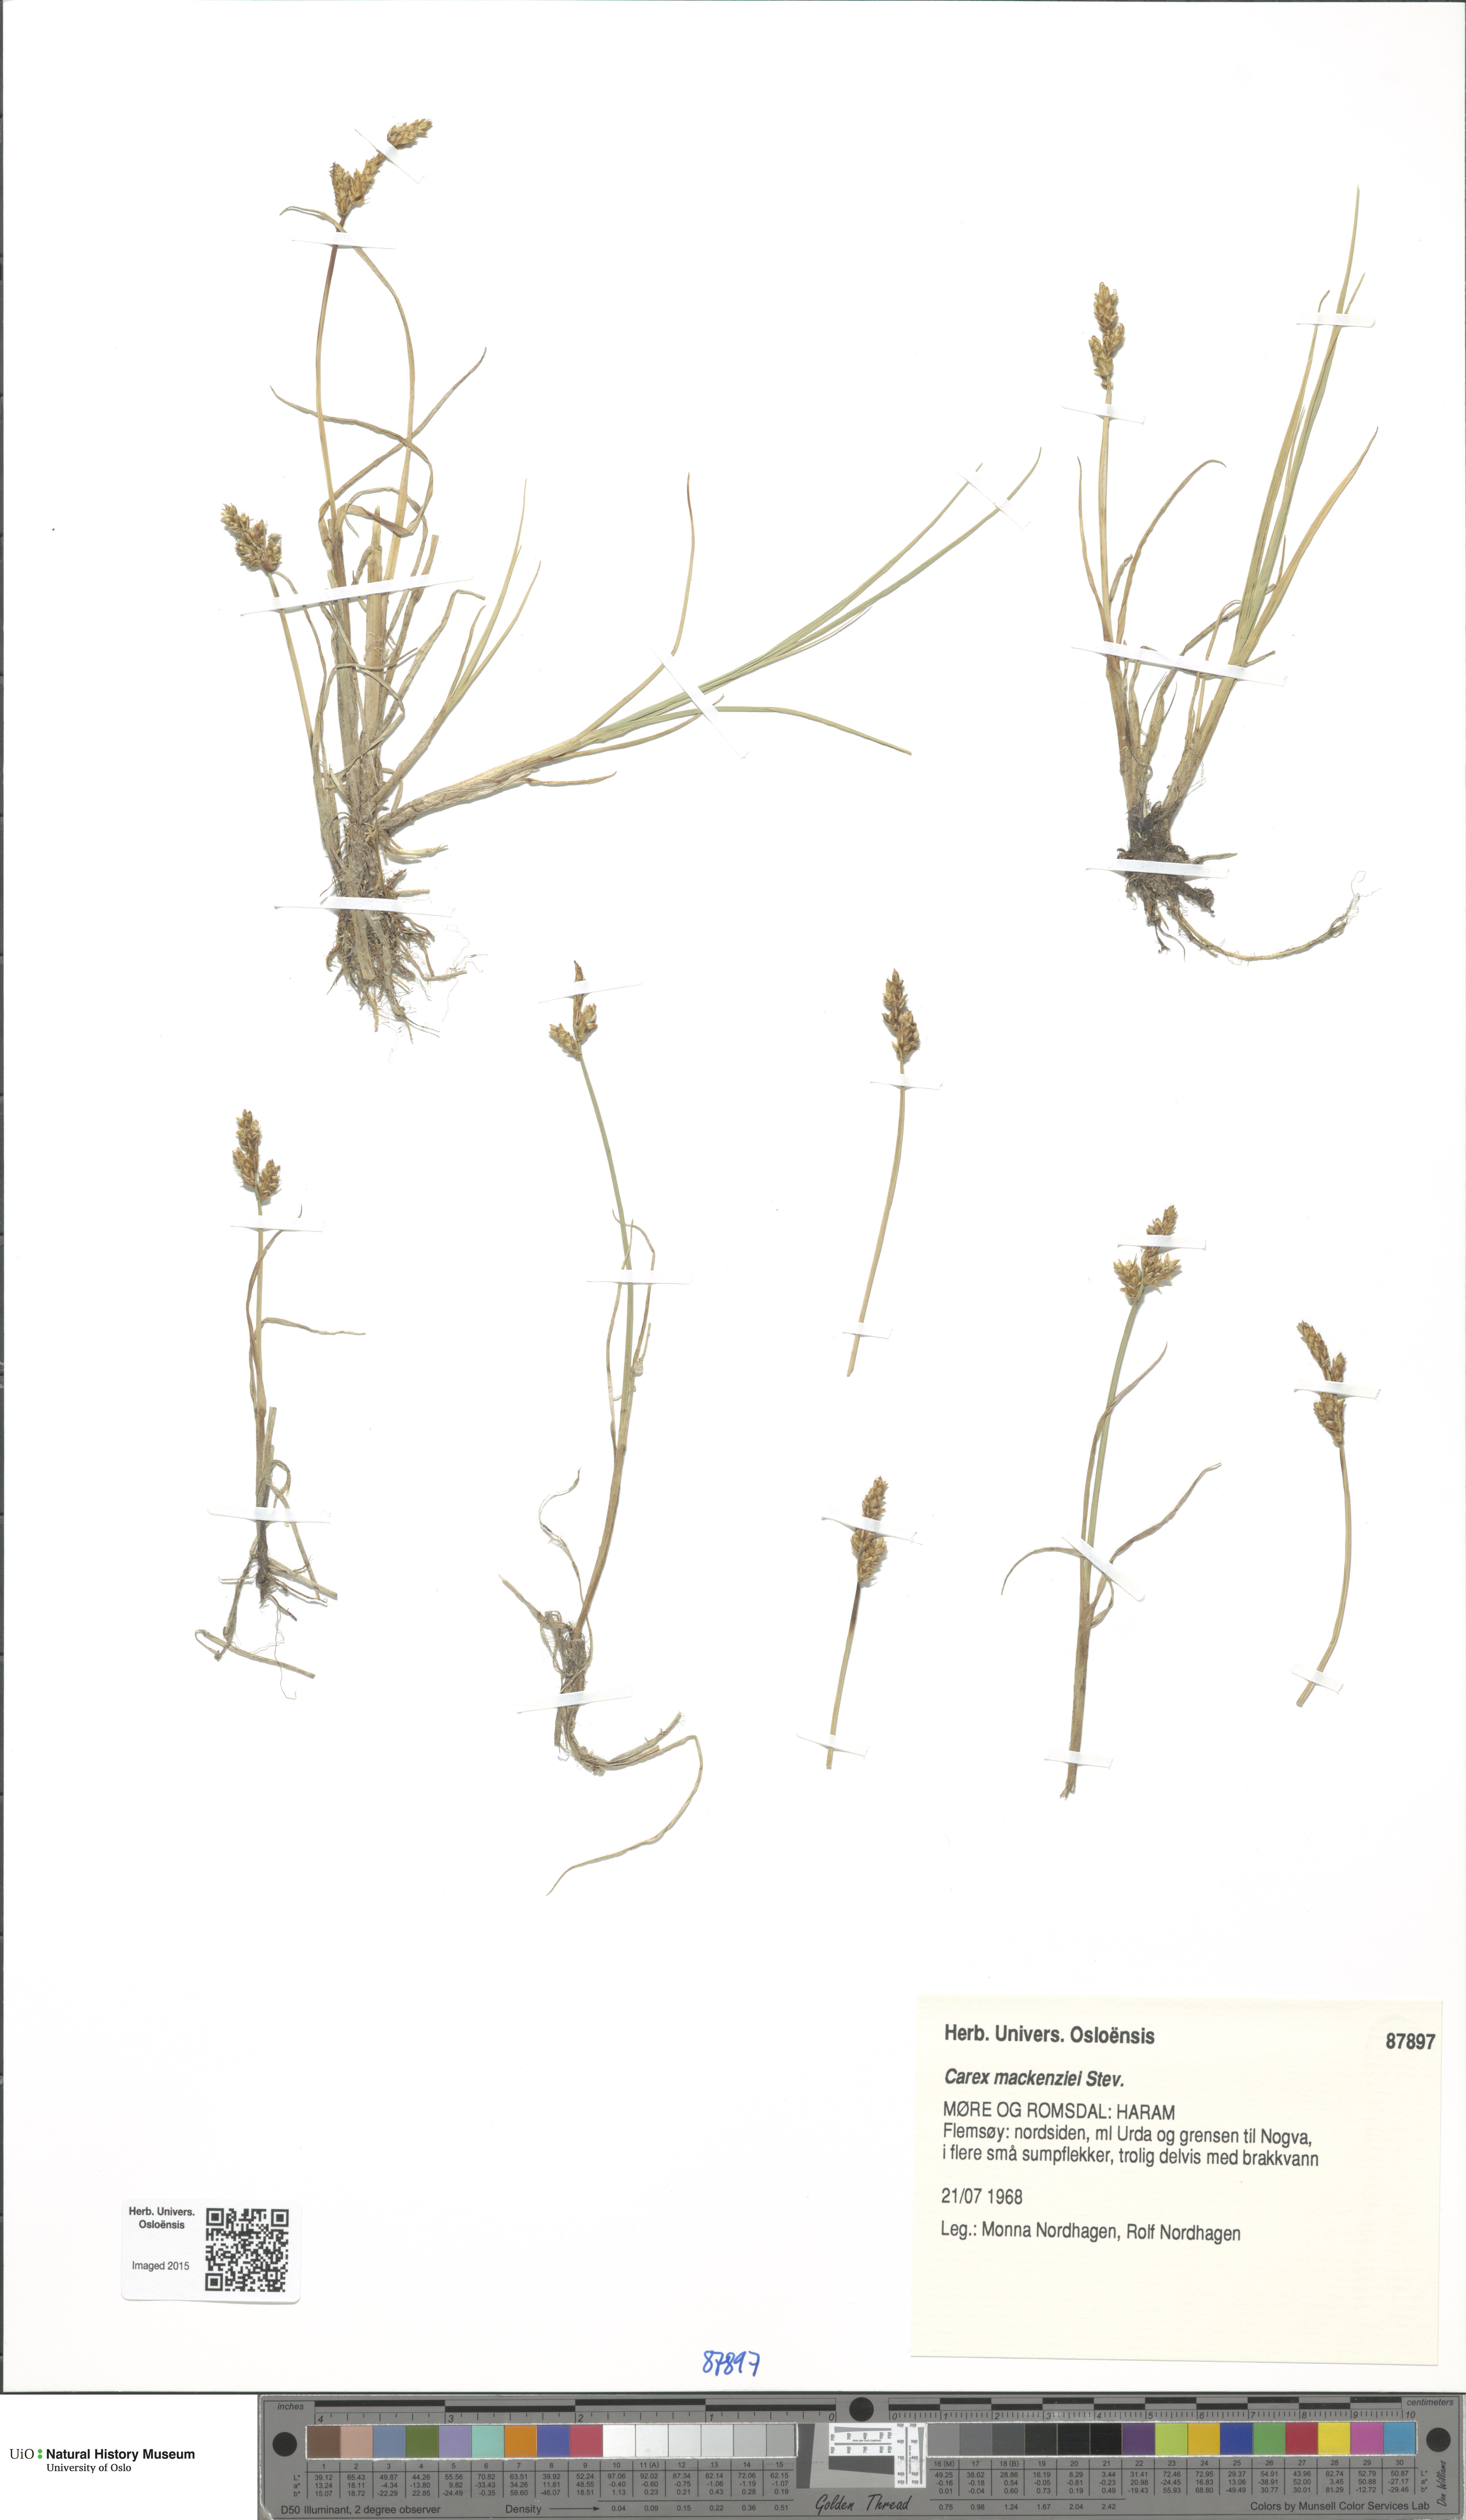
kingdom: Plantae
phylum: Tracheophyta
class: Liliopsida
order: Poales
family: Cyperaceae
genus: Carex
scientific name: Carex mackenziei
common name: Mackenzie's sedge
